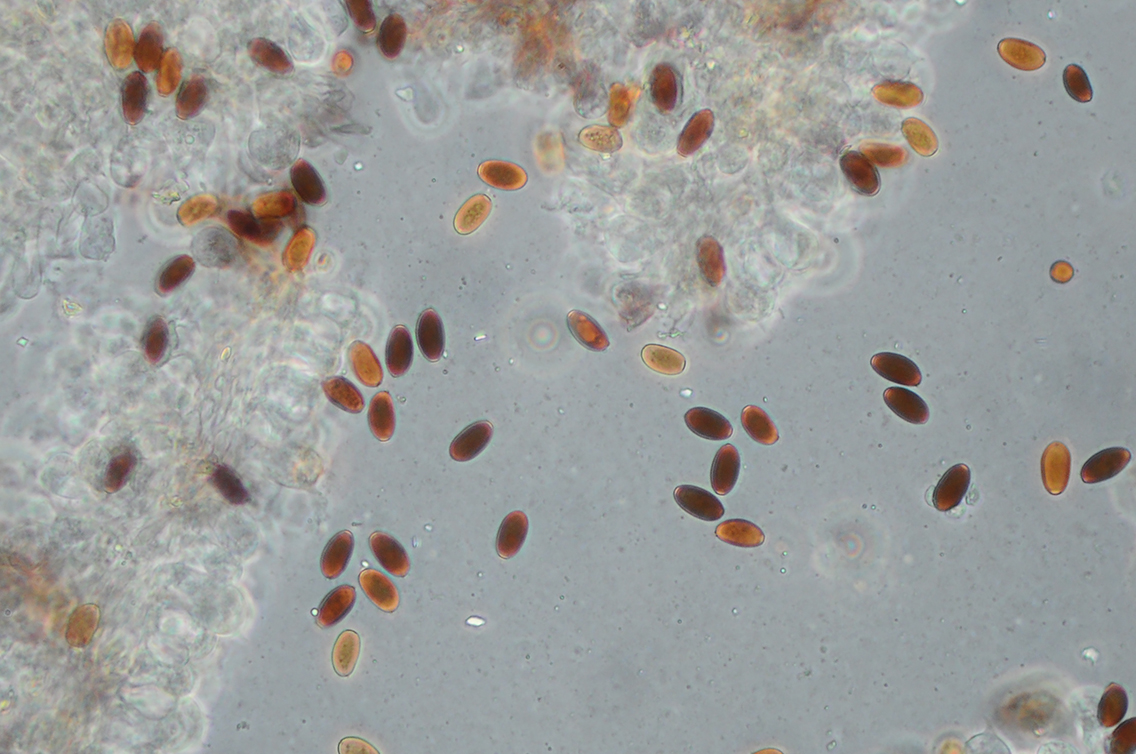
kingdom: Fungi
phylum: Basidiomycota
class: Agaricomycetes
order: Agaricales
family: Psathyrellaceae
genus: Psathyrella
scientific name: Psathyrella orbitarum
